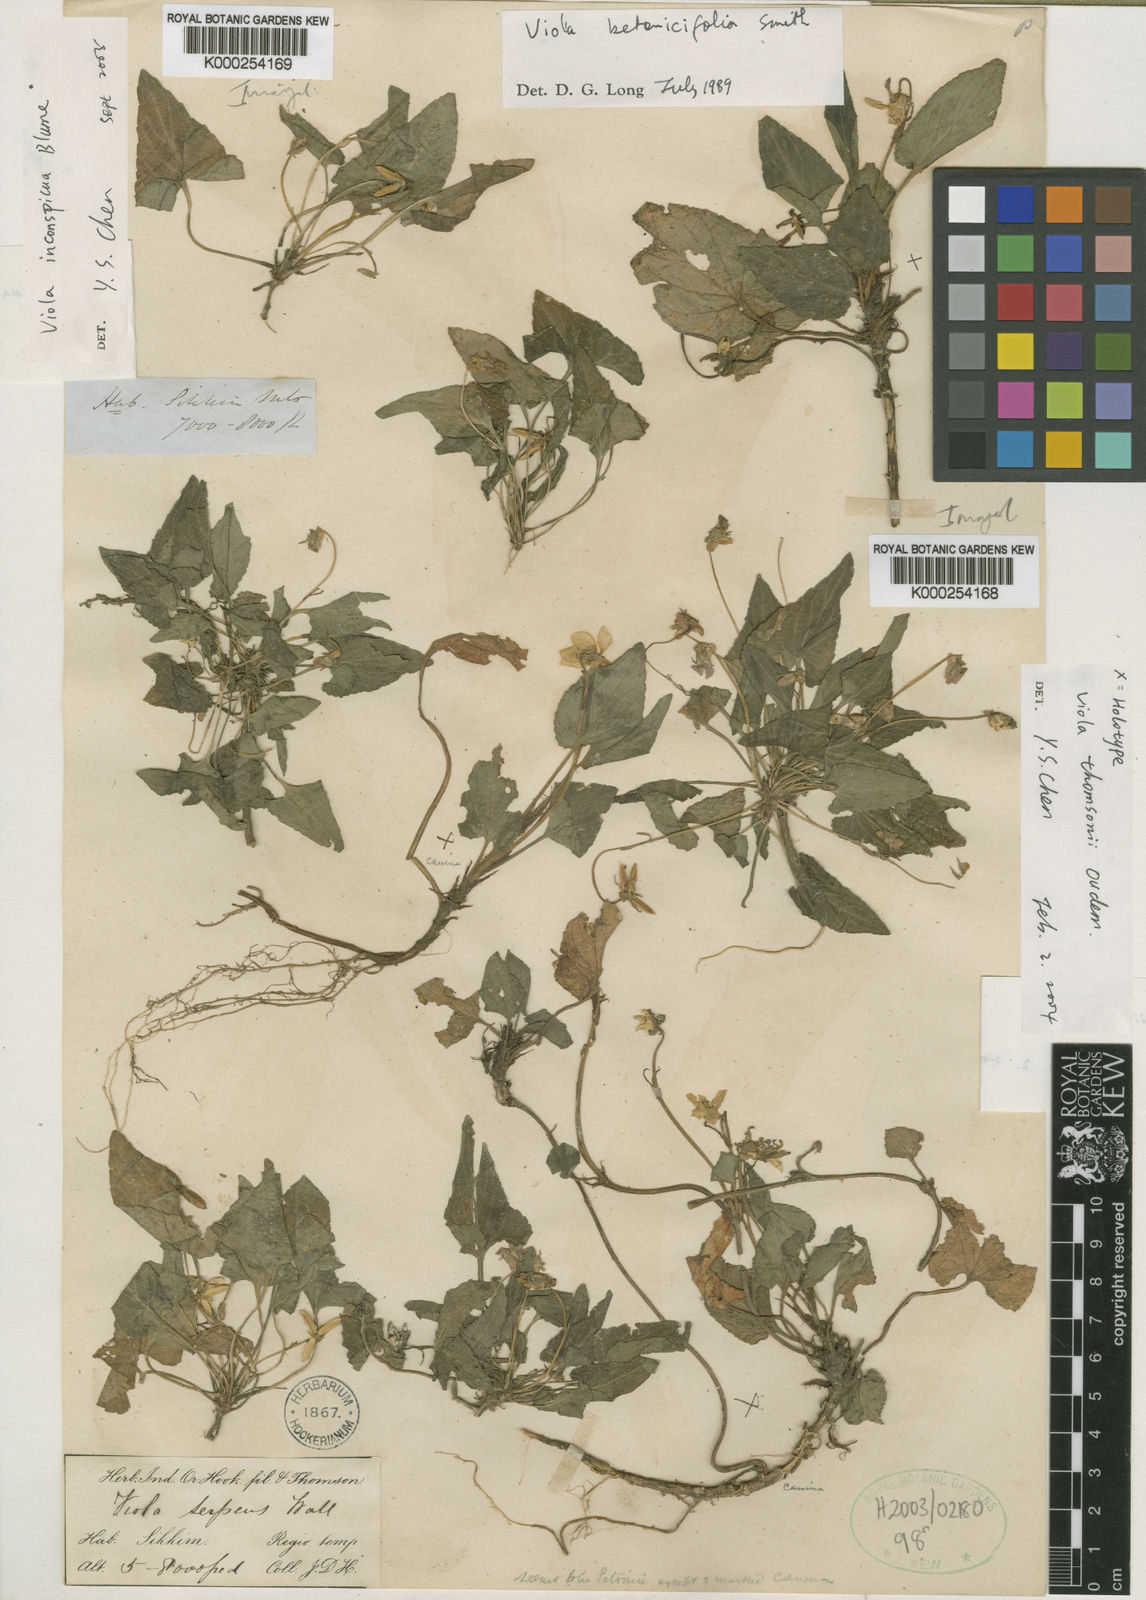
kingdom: Plantae
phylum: Tracheophyta
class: Magnoliopsida
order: Malpighiales
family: Violaceae
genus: Viola
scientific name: Viola thomsonii
